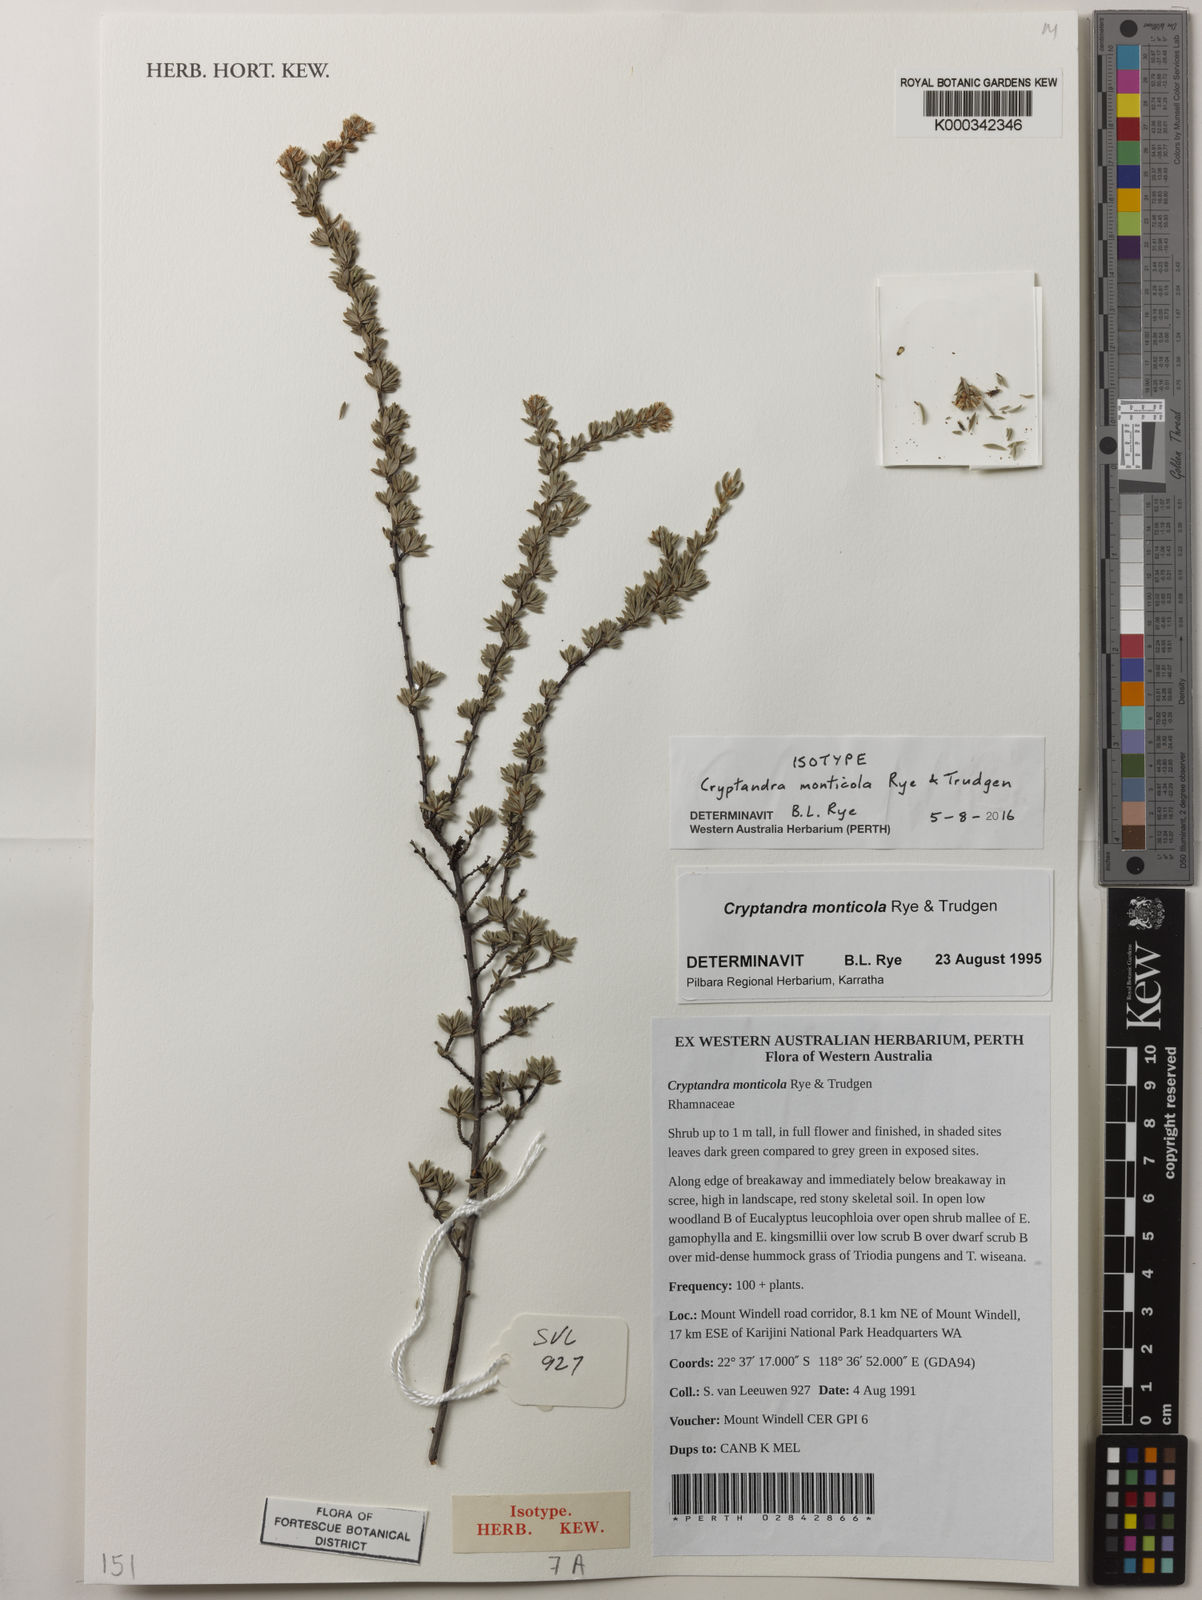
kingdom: Plantae
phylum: Tracheophyta
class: Magnoliopsida
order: Rosales
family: Rhamnaceae
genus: Cryptandra
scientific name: Cryptandra monticola
